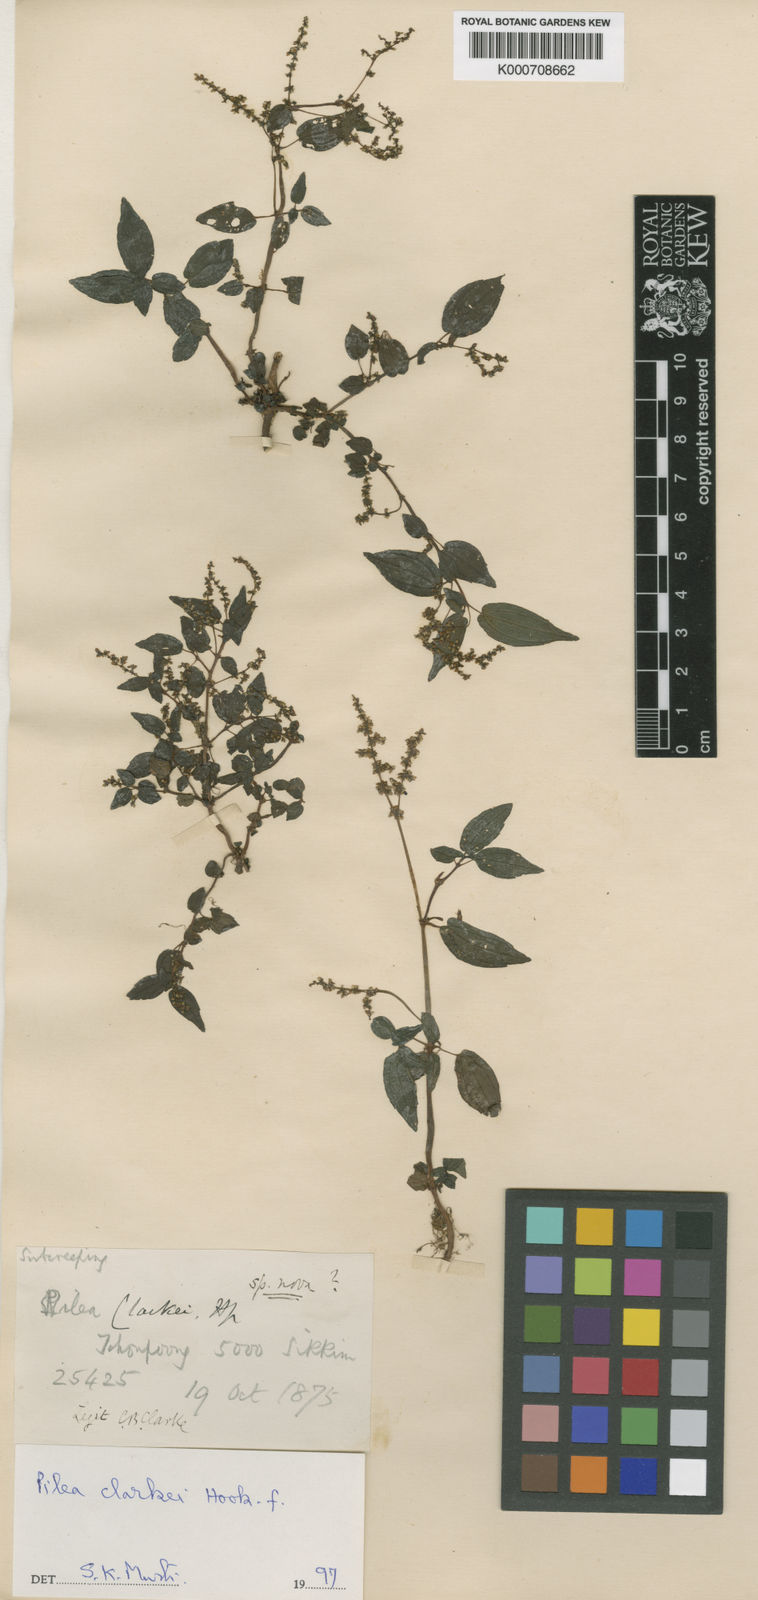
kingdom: Plantae
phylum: Tracheophyta
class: Magnoliopsida
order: Rosales
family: Urticaceae
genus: Pilea
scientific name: Pilea clarkei
